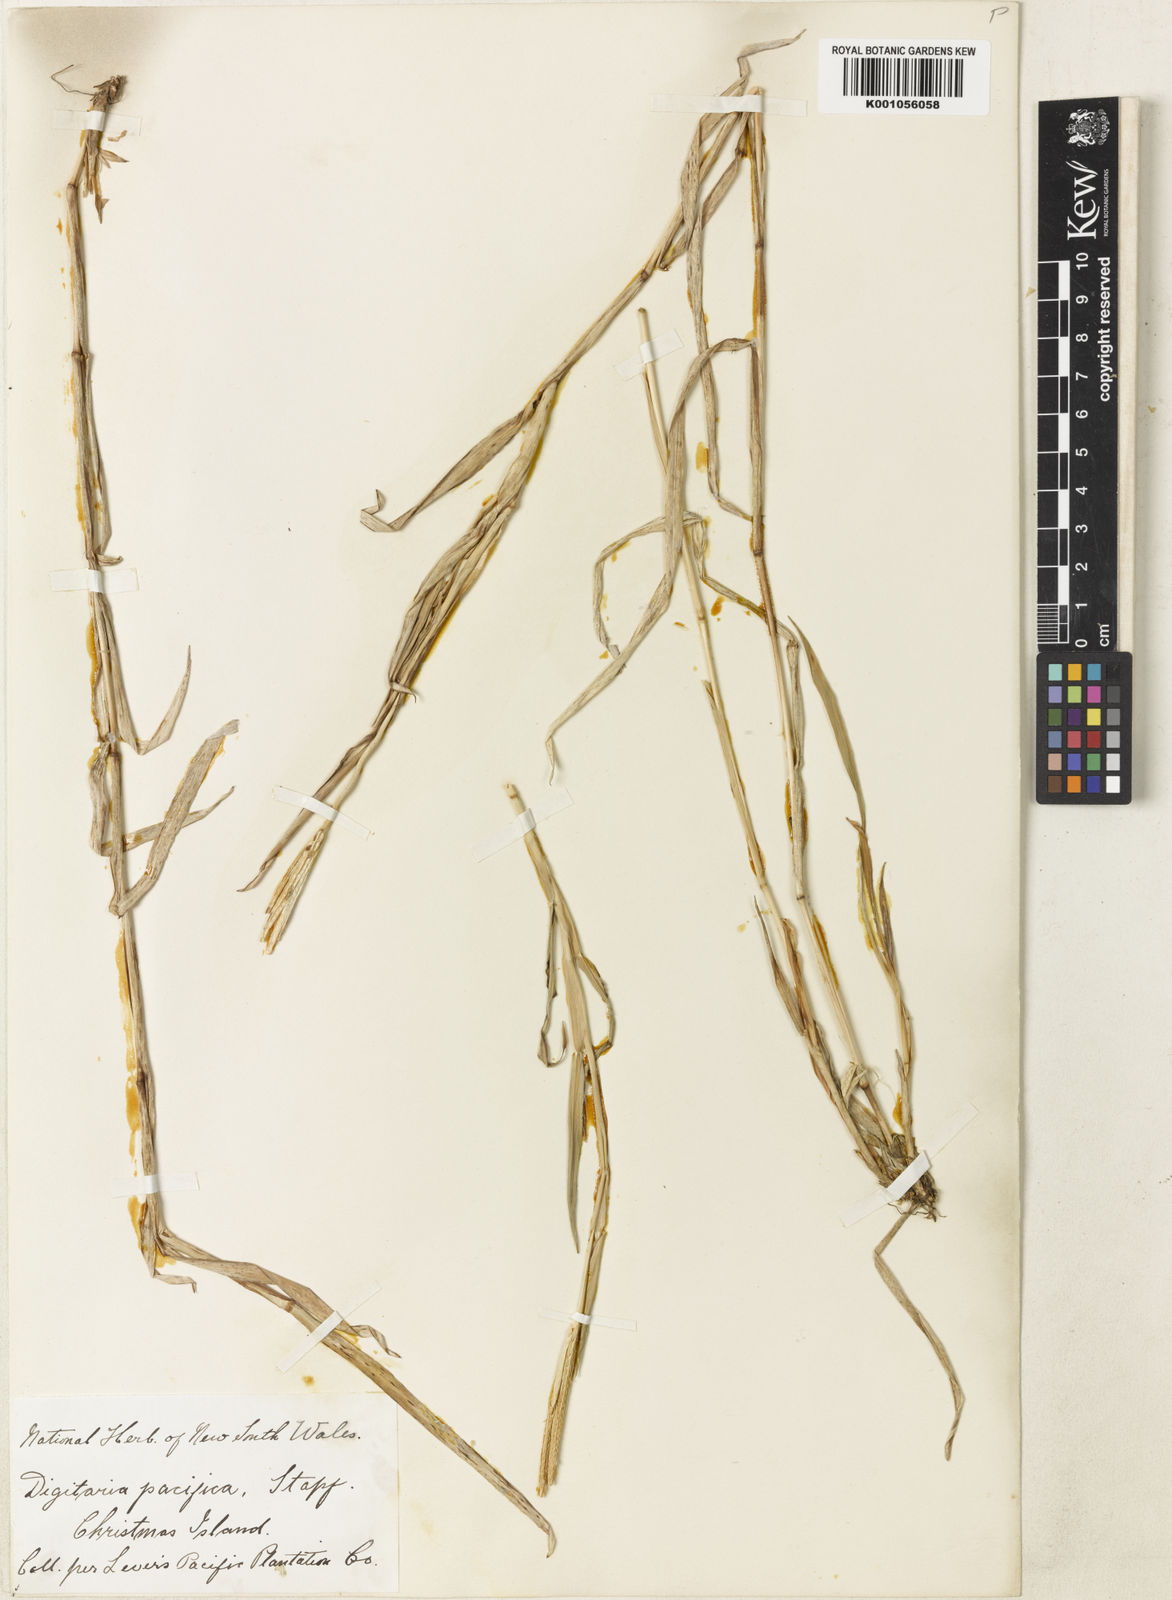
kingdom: Plantae
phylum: Tracheophyta
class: Liliopsida
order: Poales
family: Poaceae
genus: Digitaria
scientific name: Digitaria stenotaphrodes
